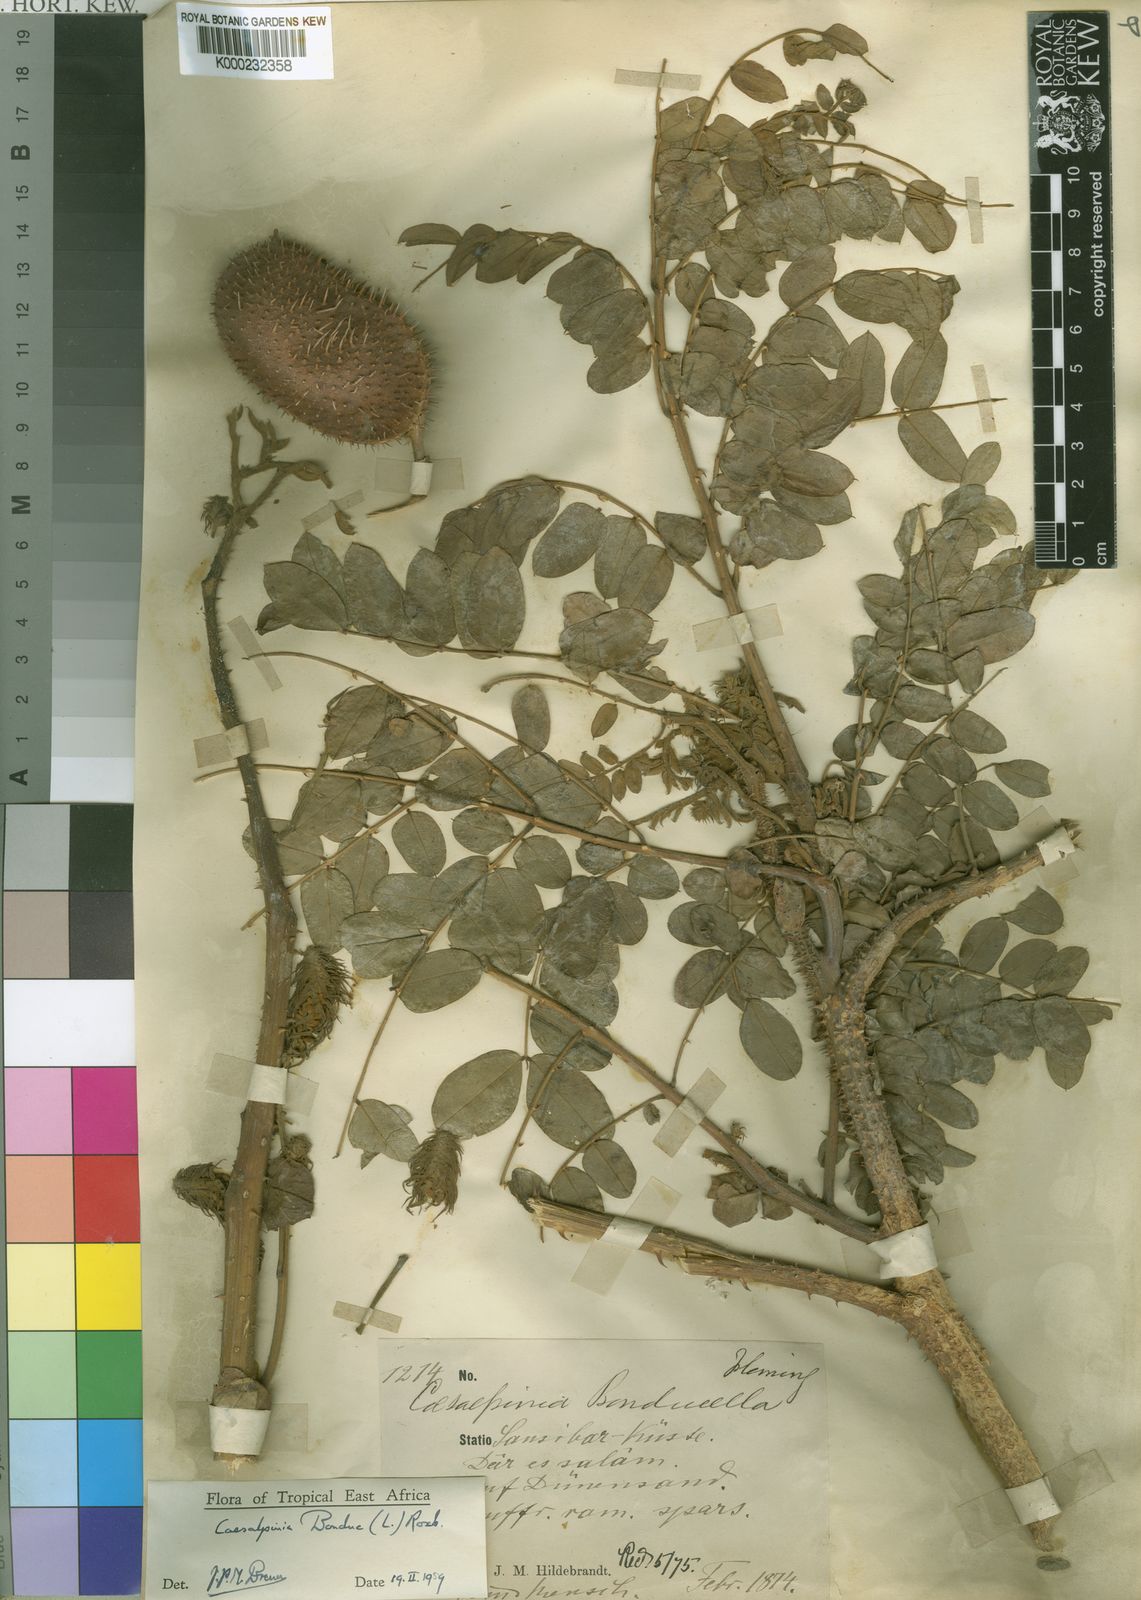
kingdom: Plantae
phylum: Tracheophyta
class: Magnoliopsida
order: Fabales
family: Fabaceae
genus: Guilandina
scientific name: Guilandina bonduc
